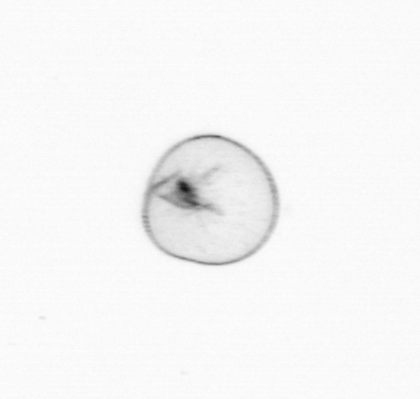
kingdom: Chromista
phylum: Myzozoa
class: Dinophyceae
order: Noctilucales
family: Noctilucaceae
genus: Noctiluca
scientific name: Noctiluca scintillans
